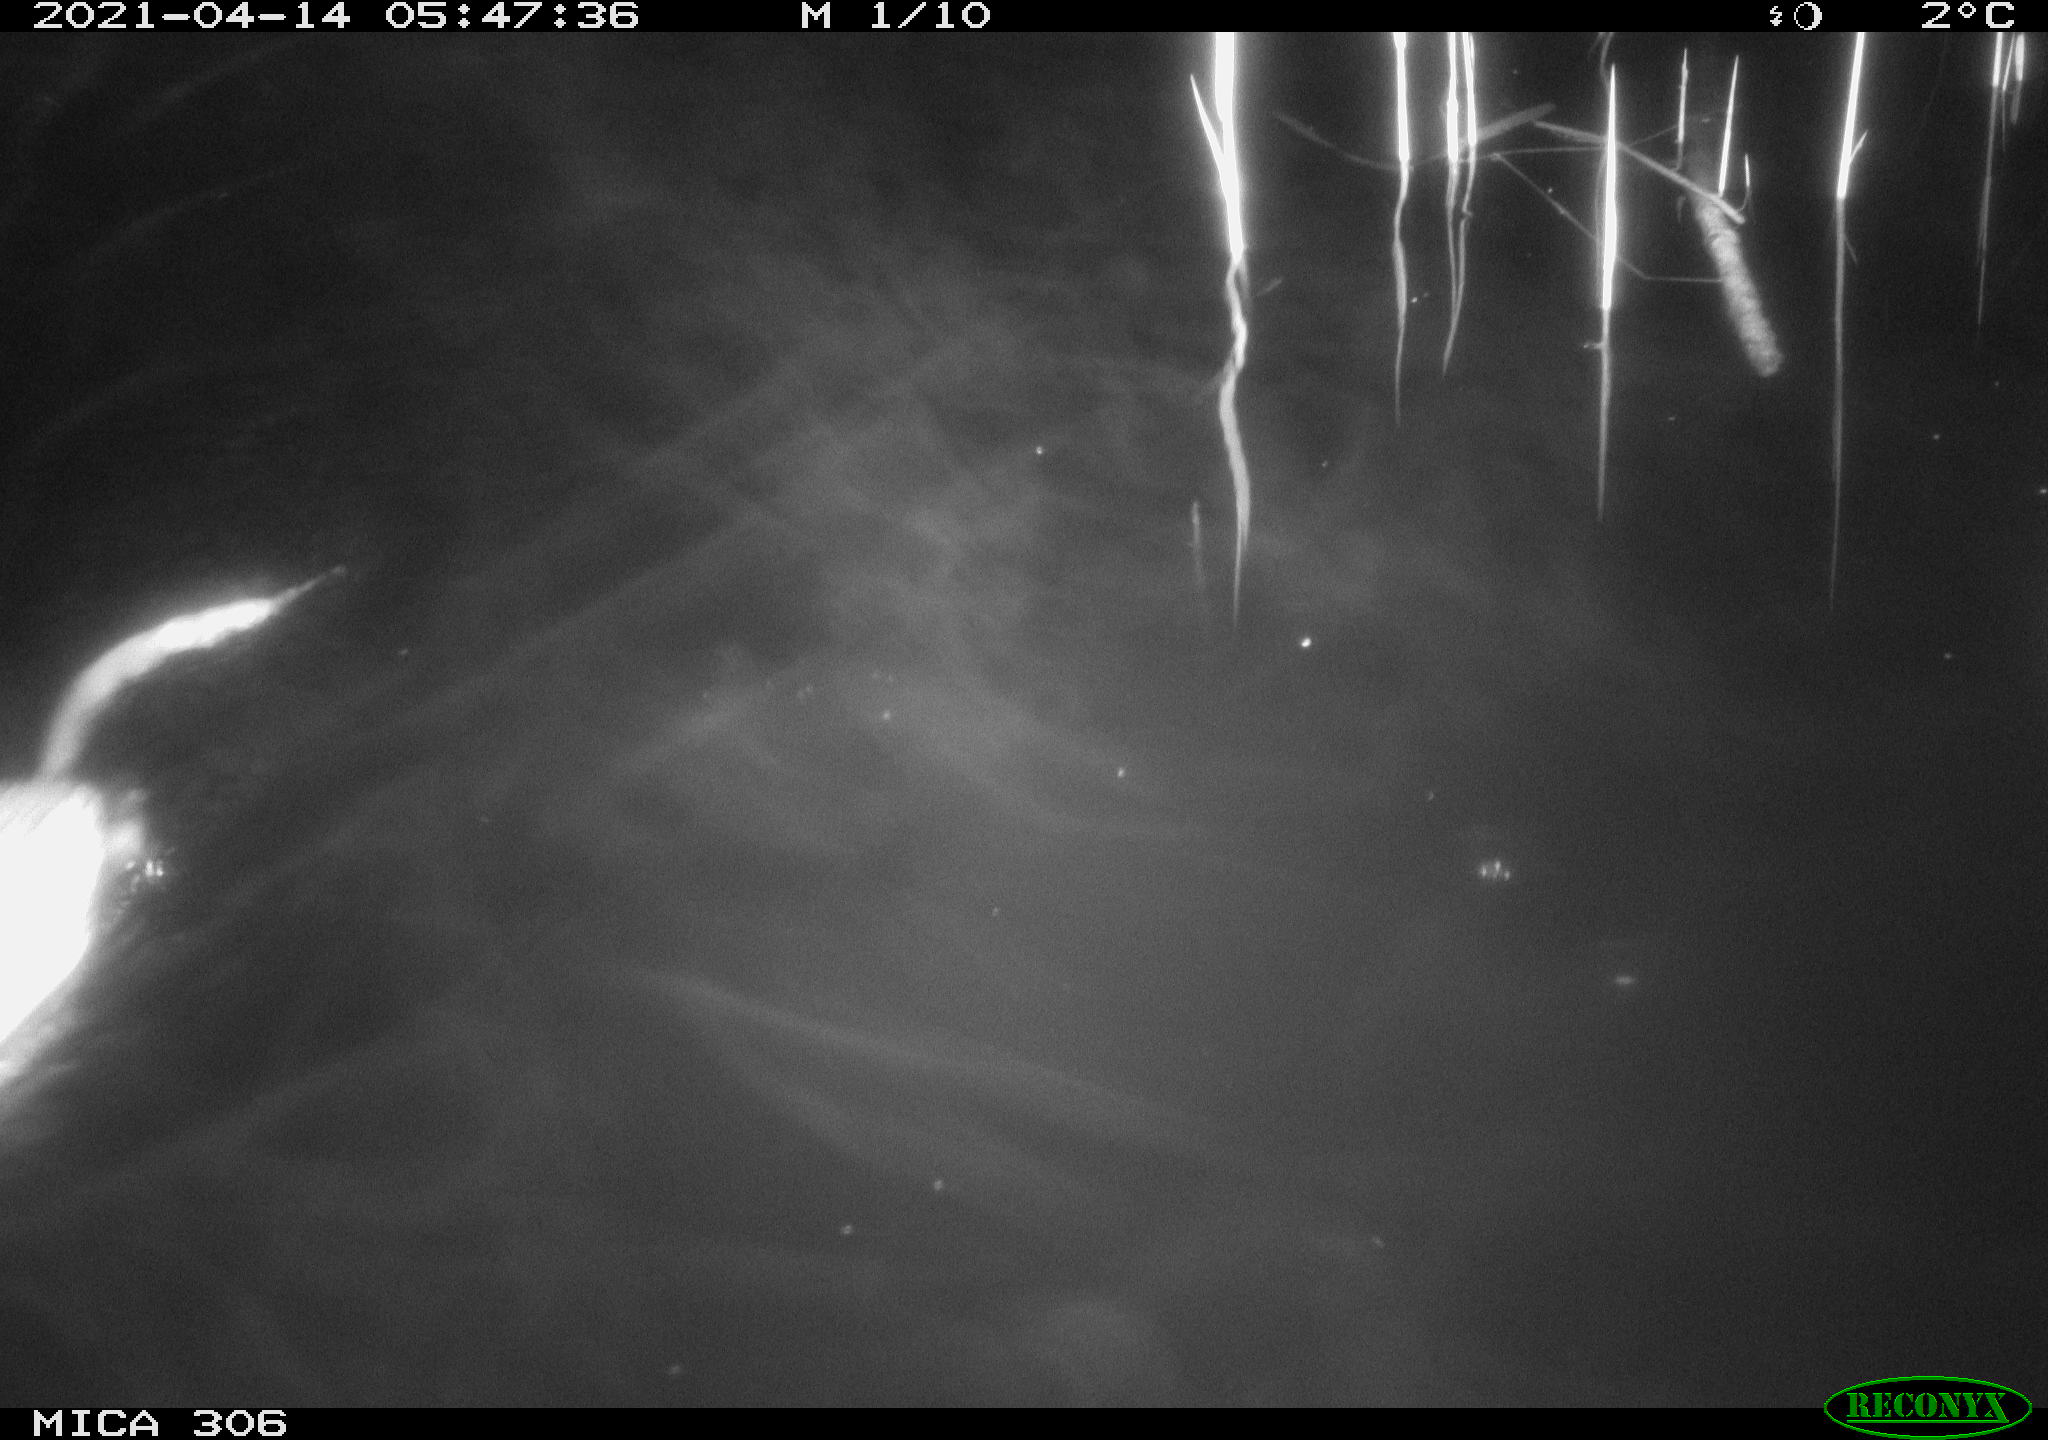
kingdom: Animalia
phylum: Chordata
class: Mammalia
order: Rodentia
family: Muridae
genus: Rattus
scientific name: Rattus norvegicus
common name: Brown rat
